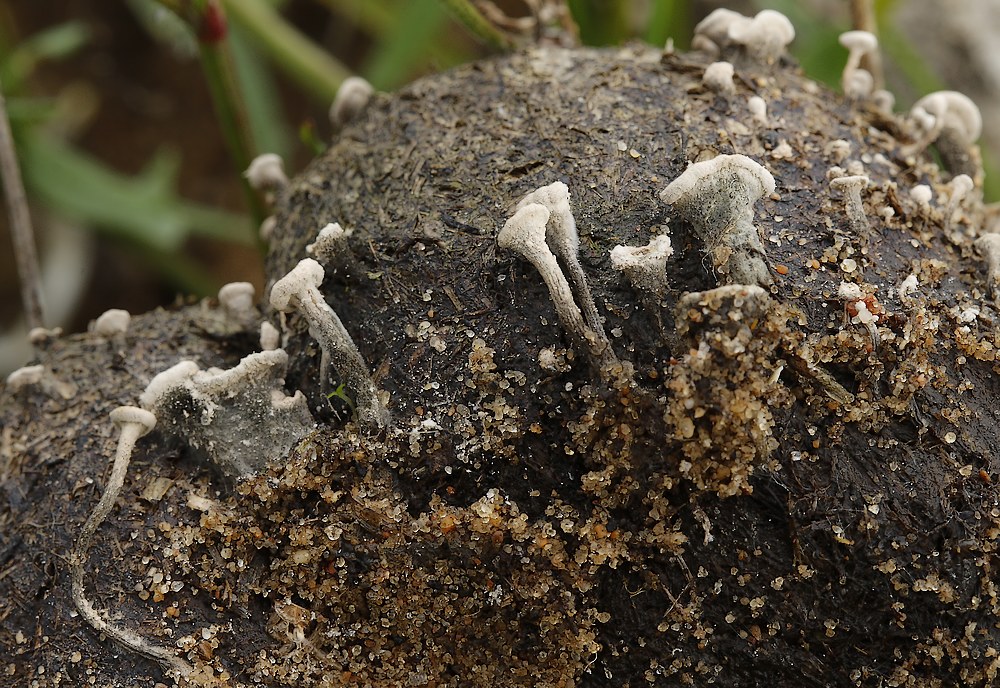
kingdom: Fungi
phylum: Ascomycota
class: Sordariomycetes
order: Xylariales
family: Xylariaceae
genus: Poronia
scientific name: Poronia punctata
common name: stor priksvamp
